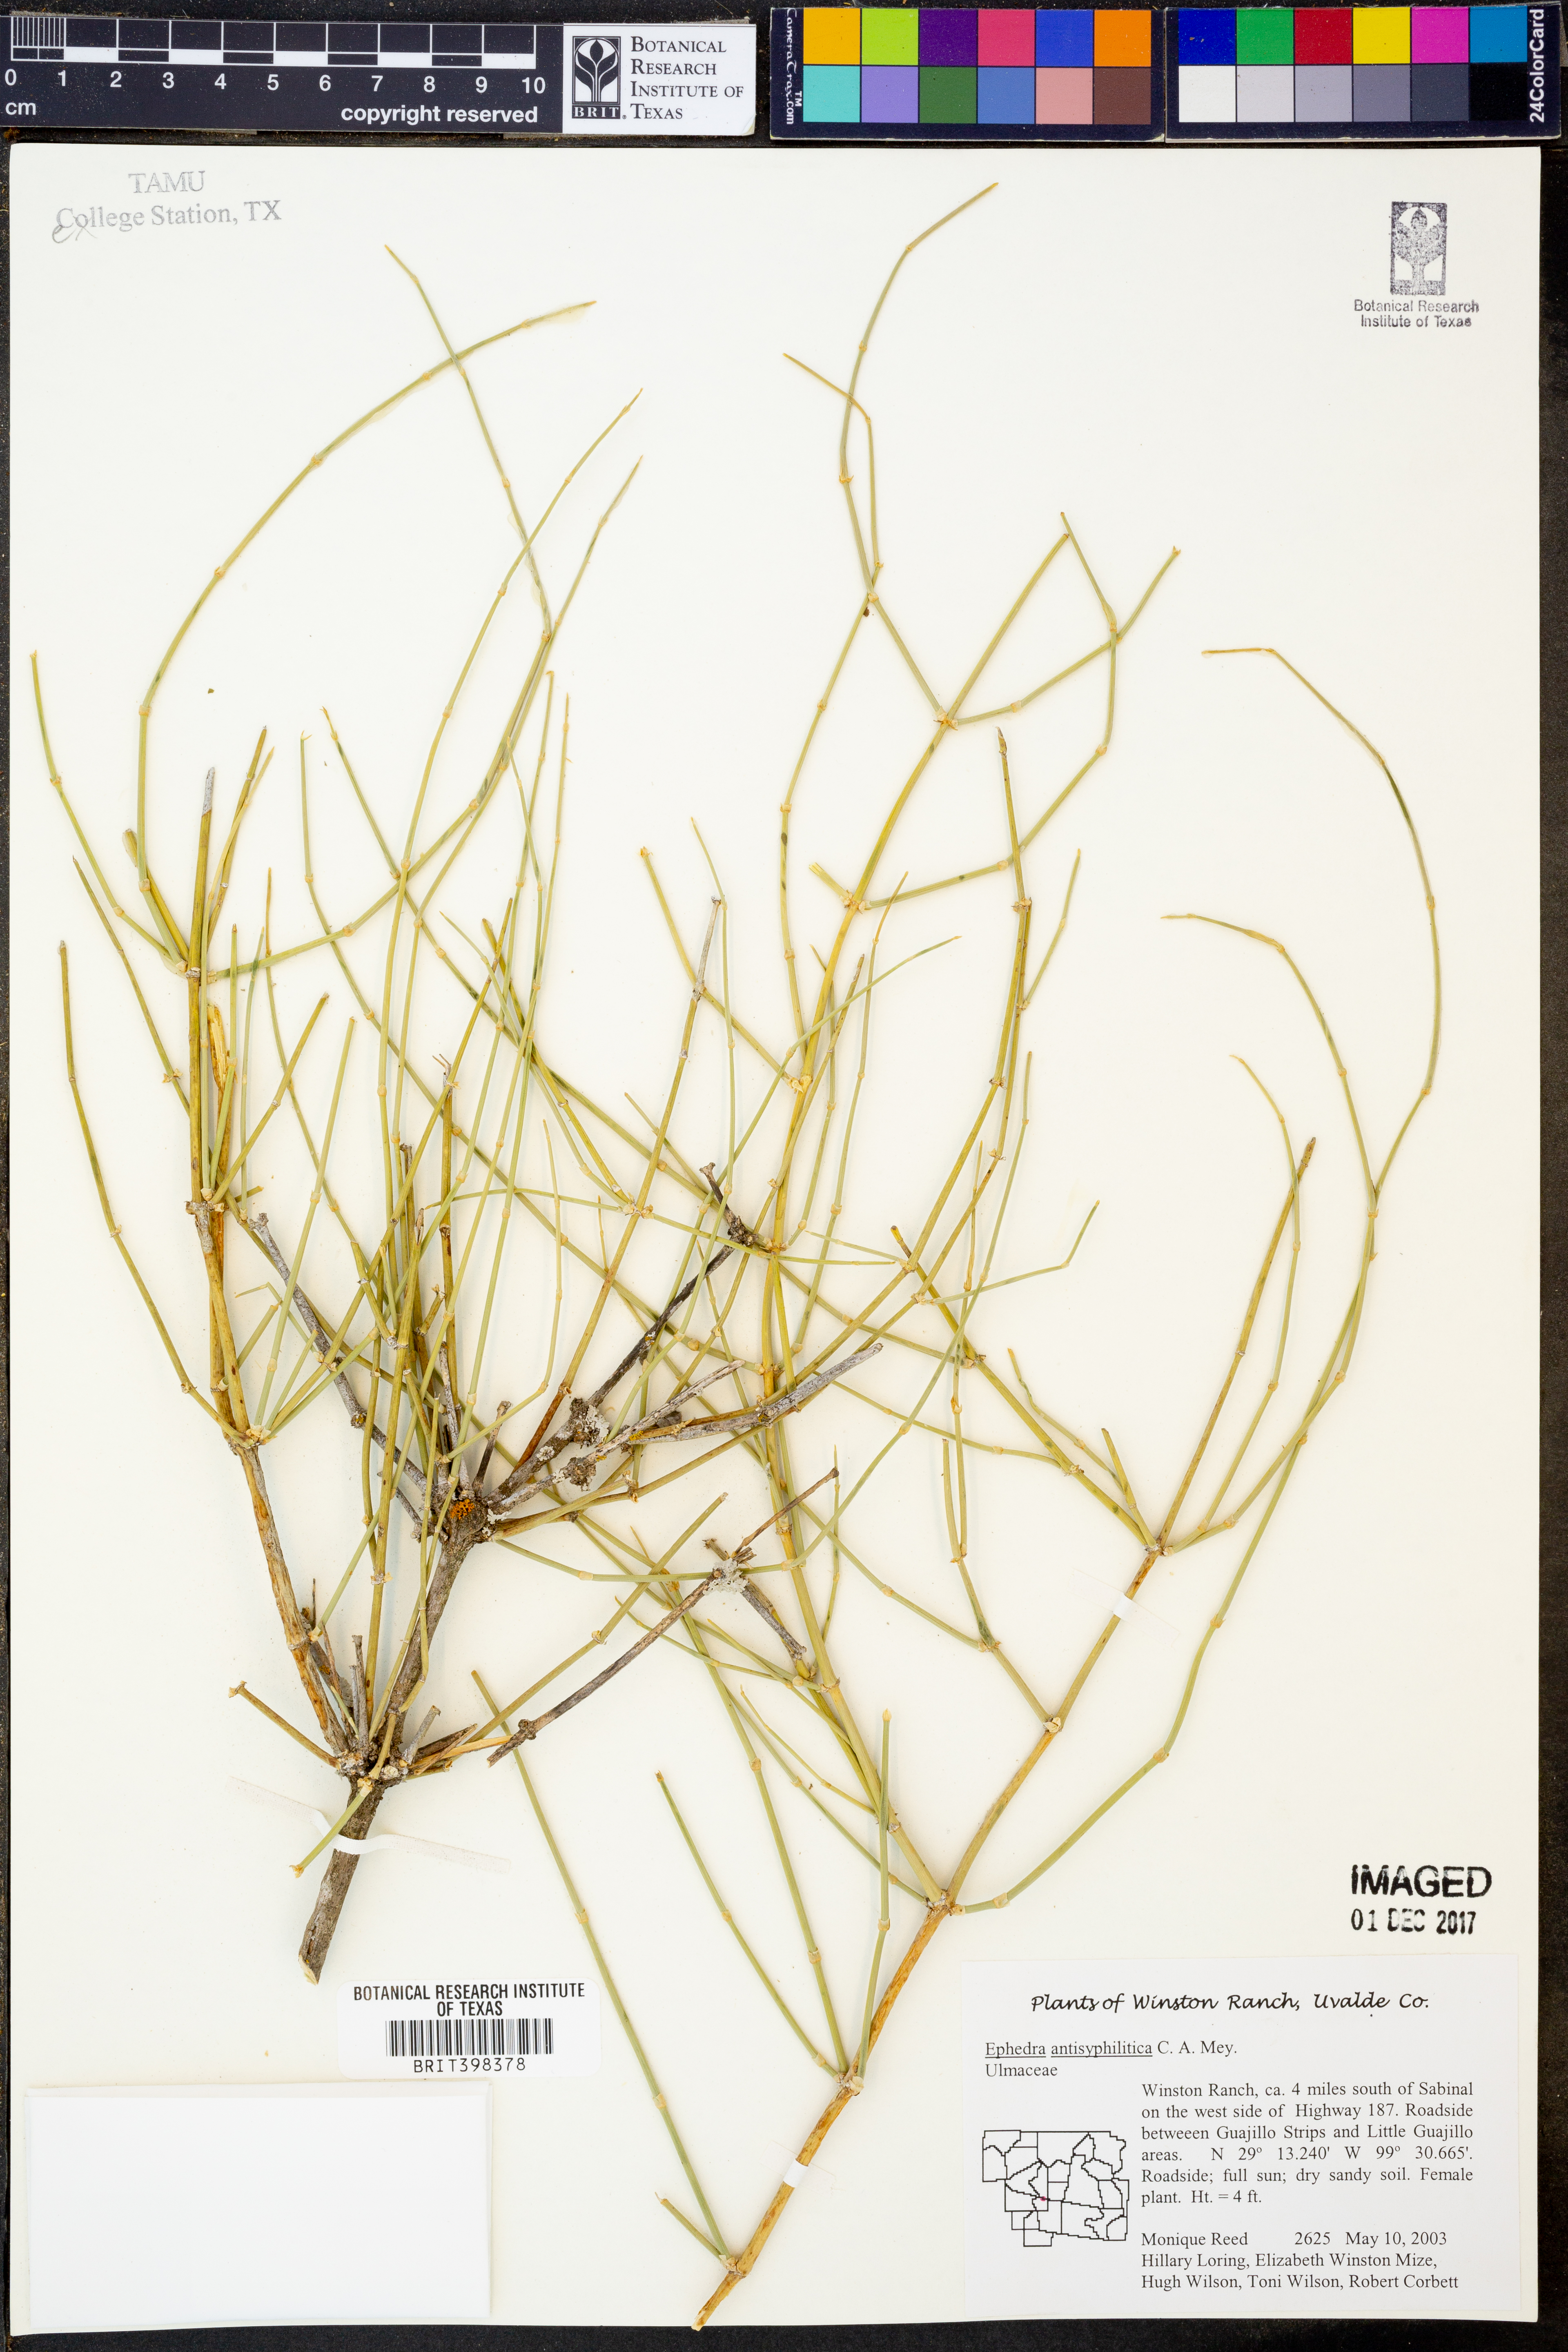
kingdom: Plantae
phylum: Tracheophyta
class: Gnetopsida
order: Ephedrales
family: Ephedraceae
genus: Ephedra
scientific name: Ephedra antisyphilitica
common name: Clipweed
